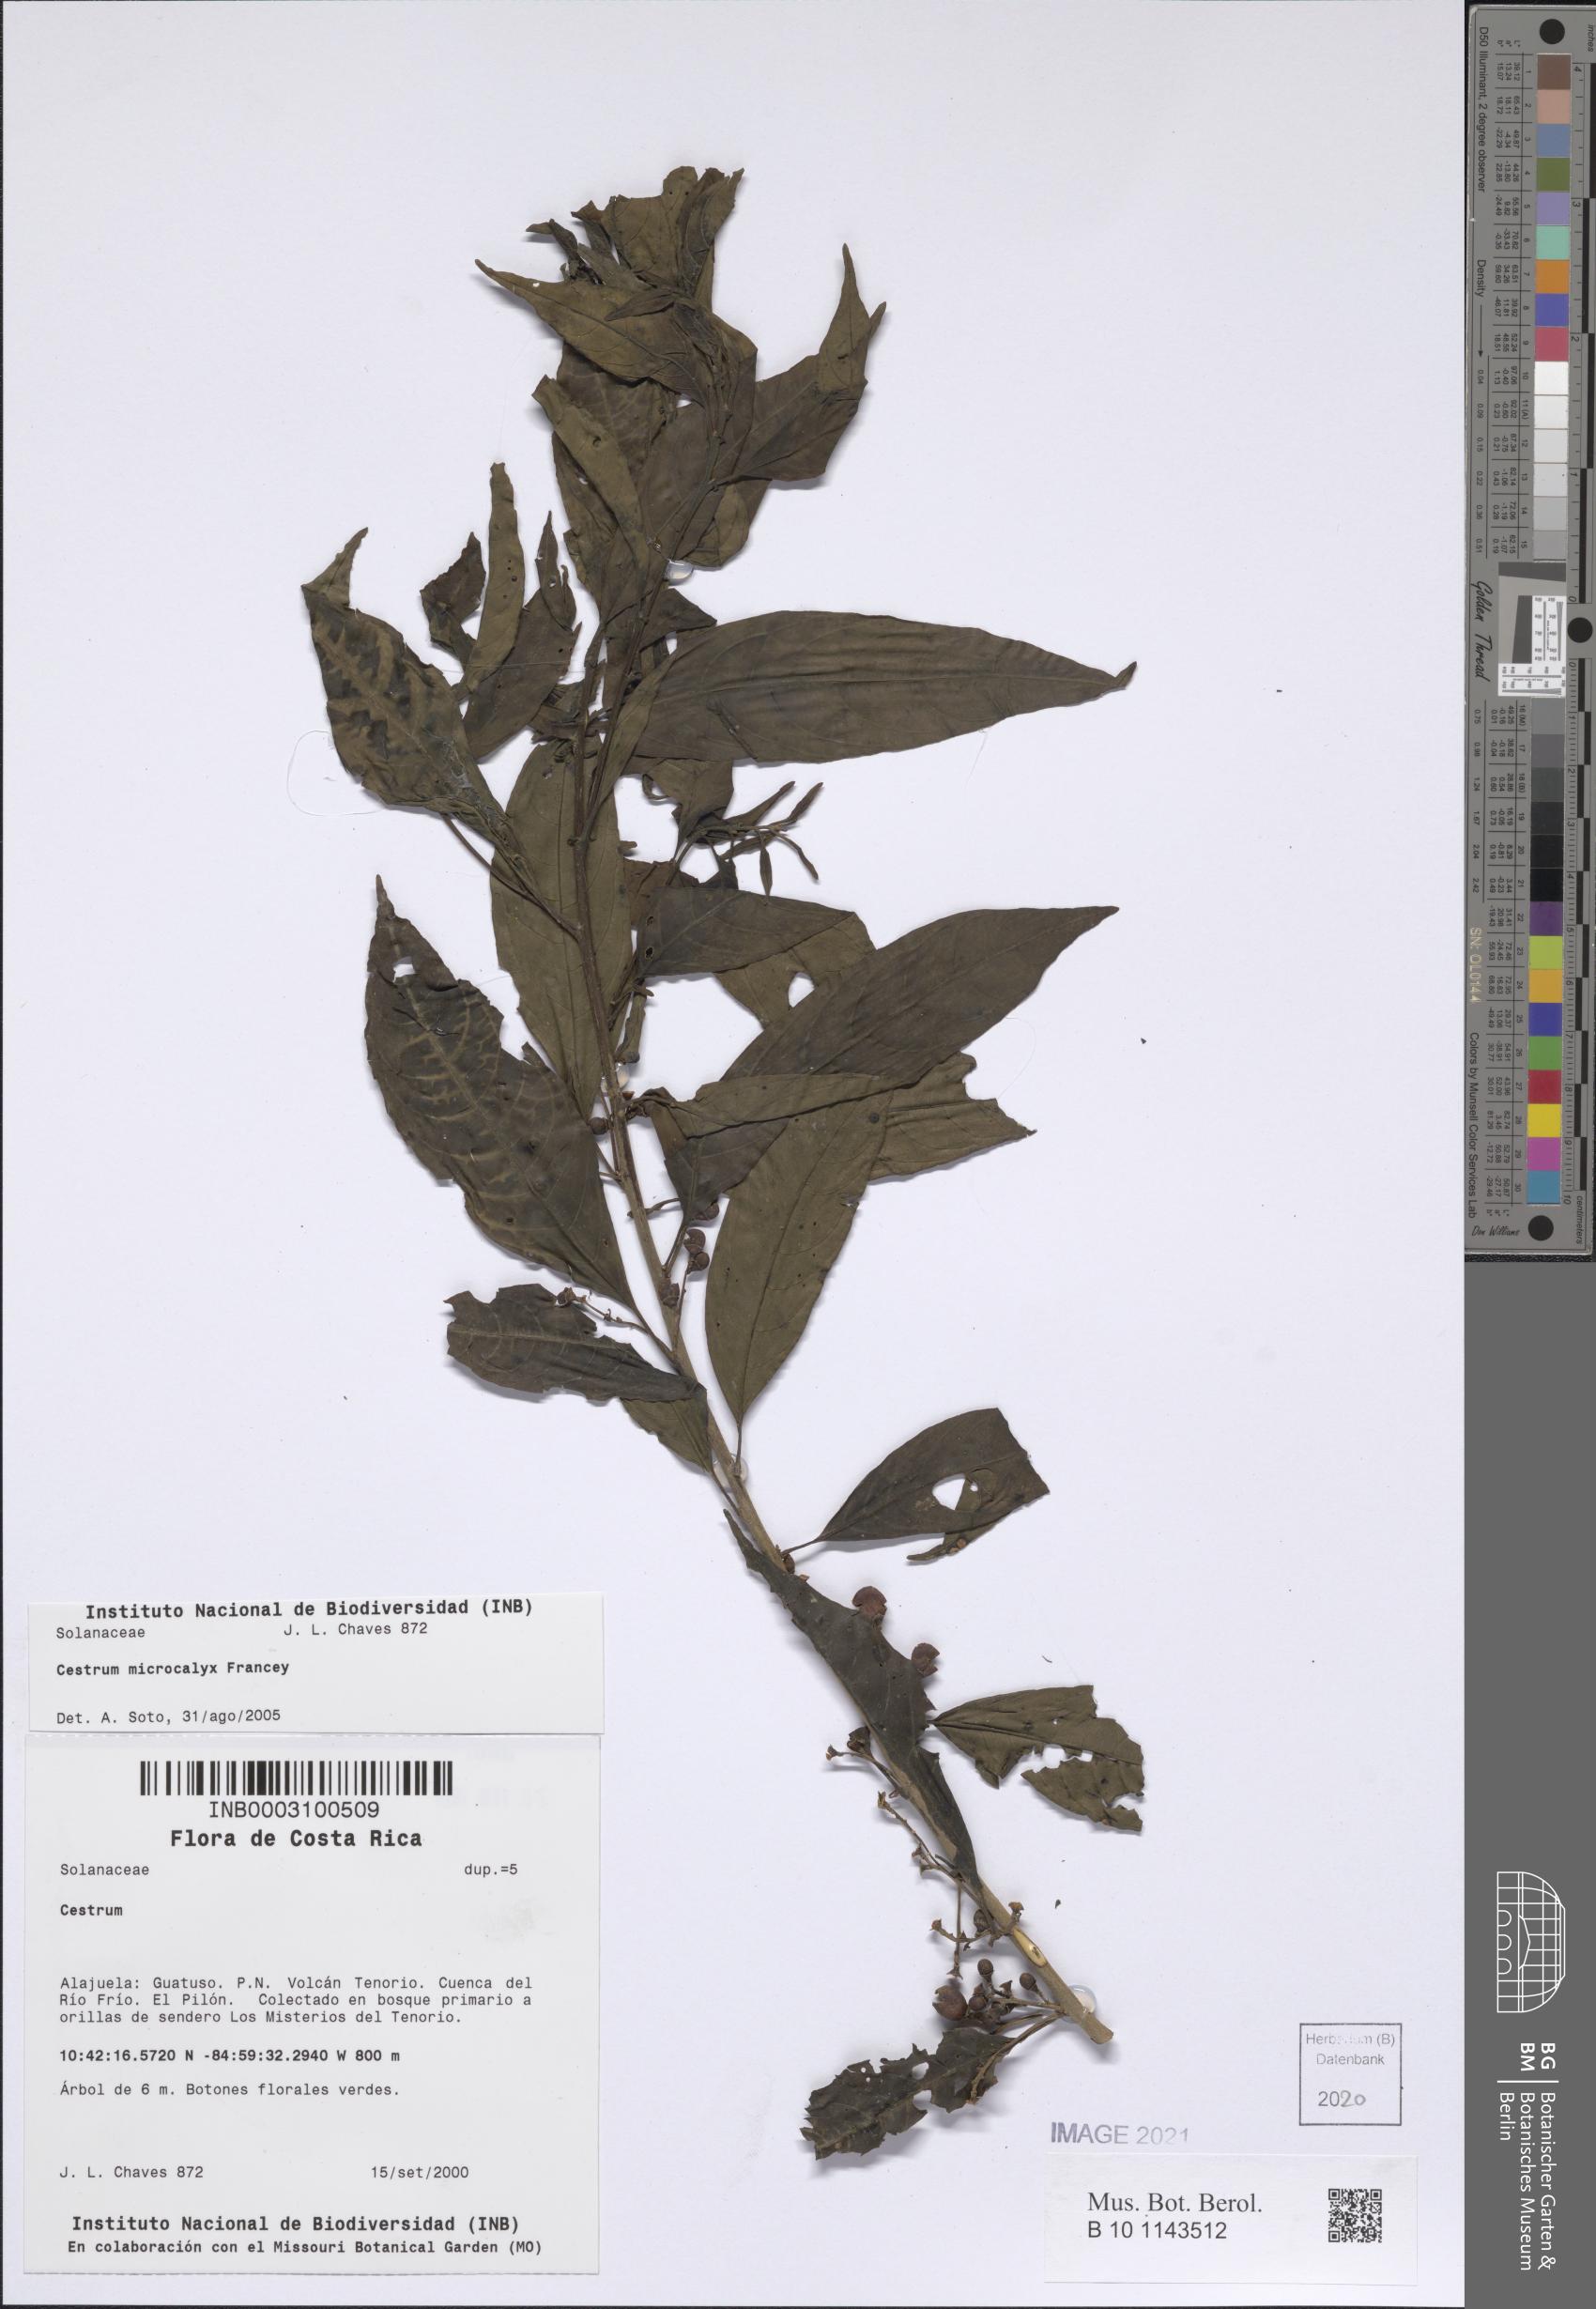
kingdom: Plantae
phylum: Tracheophyta
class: Magnoliopsida
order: Solanales
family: Solanaceae
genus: Cestrum
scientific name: Cestrum microcalyx
